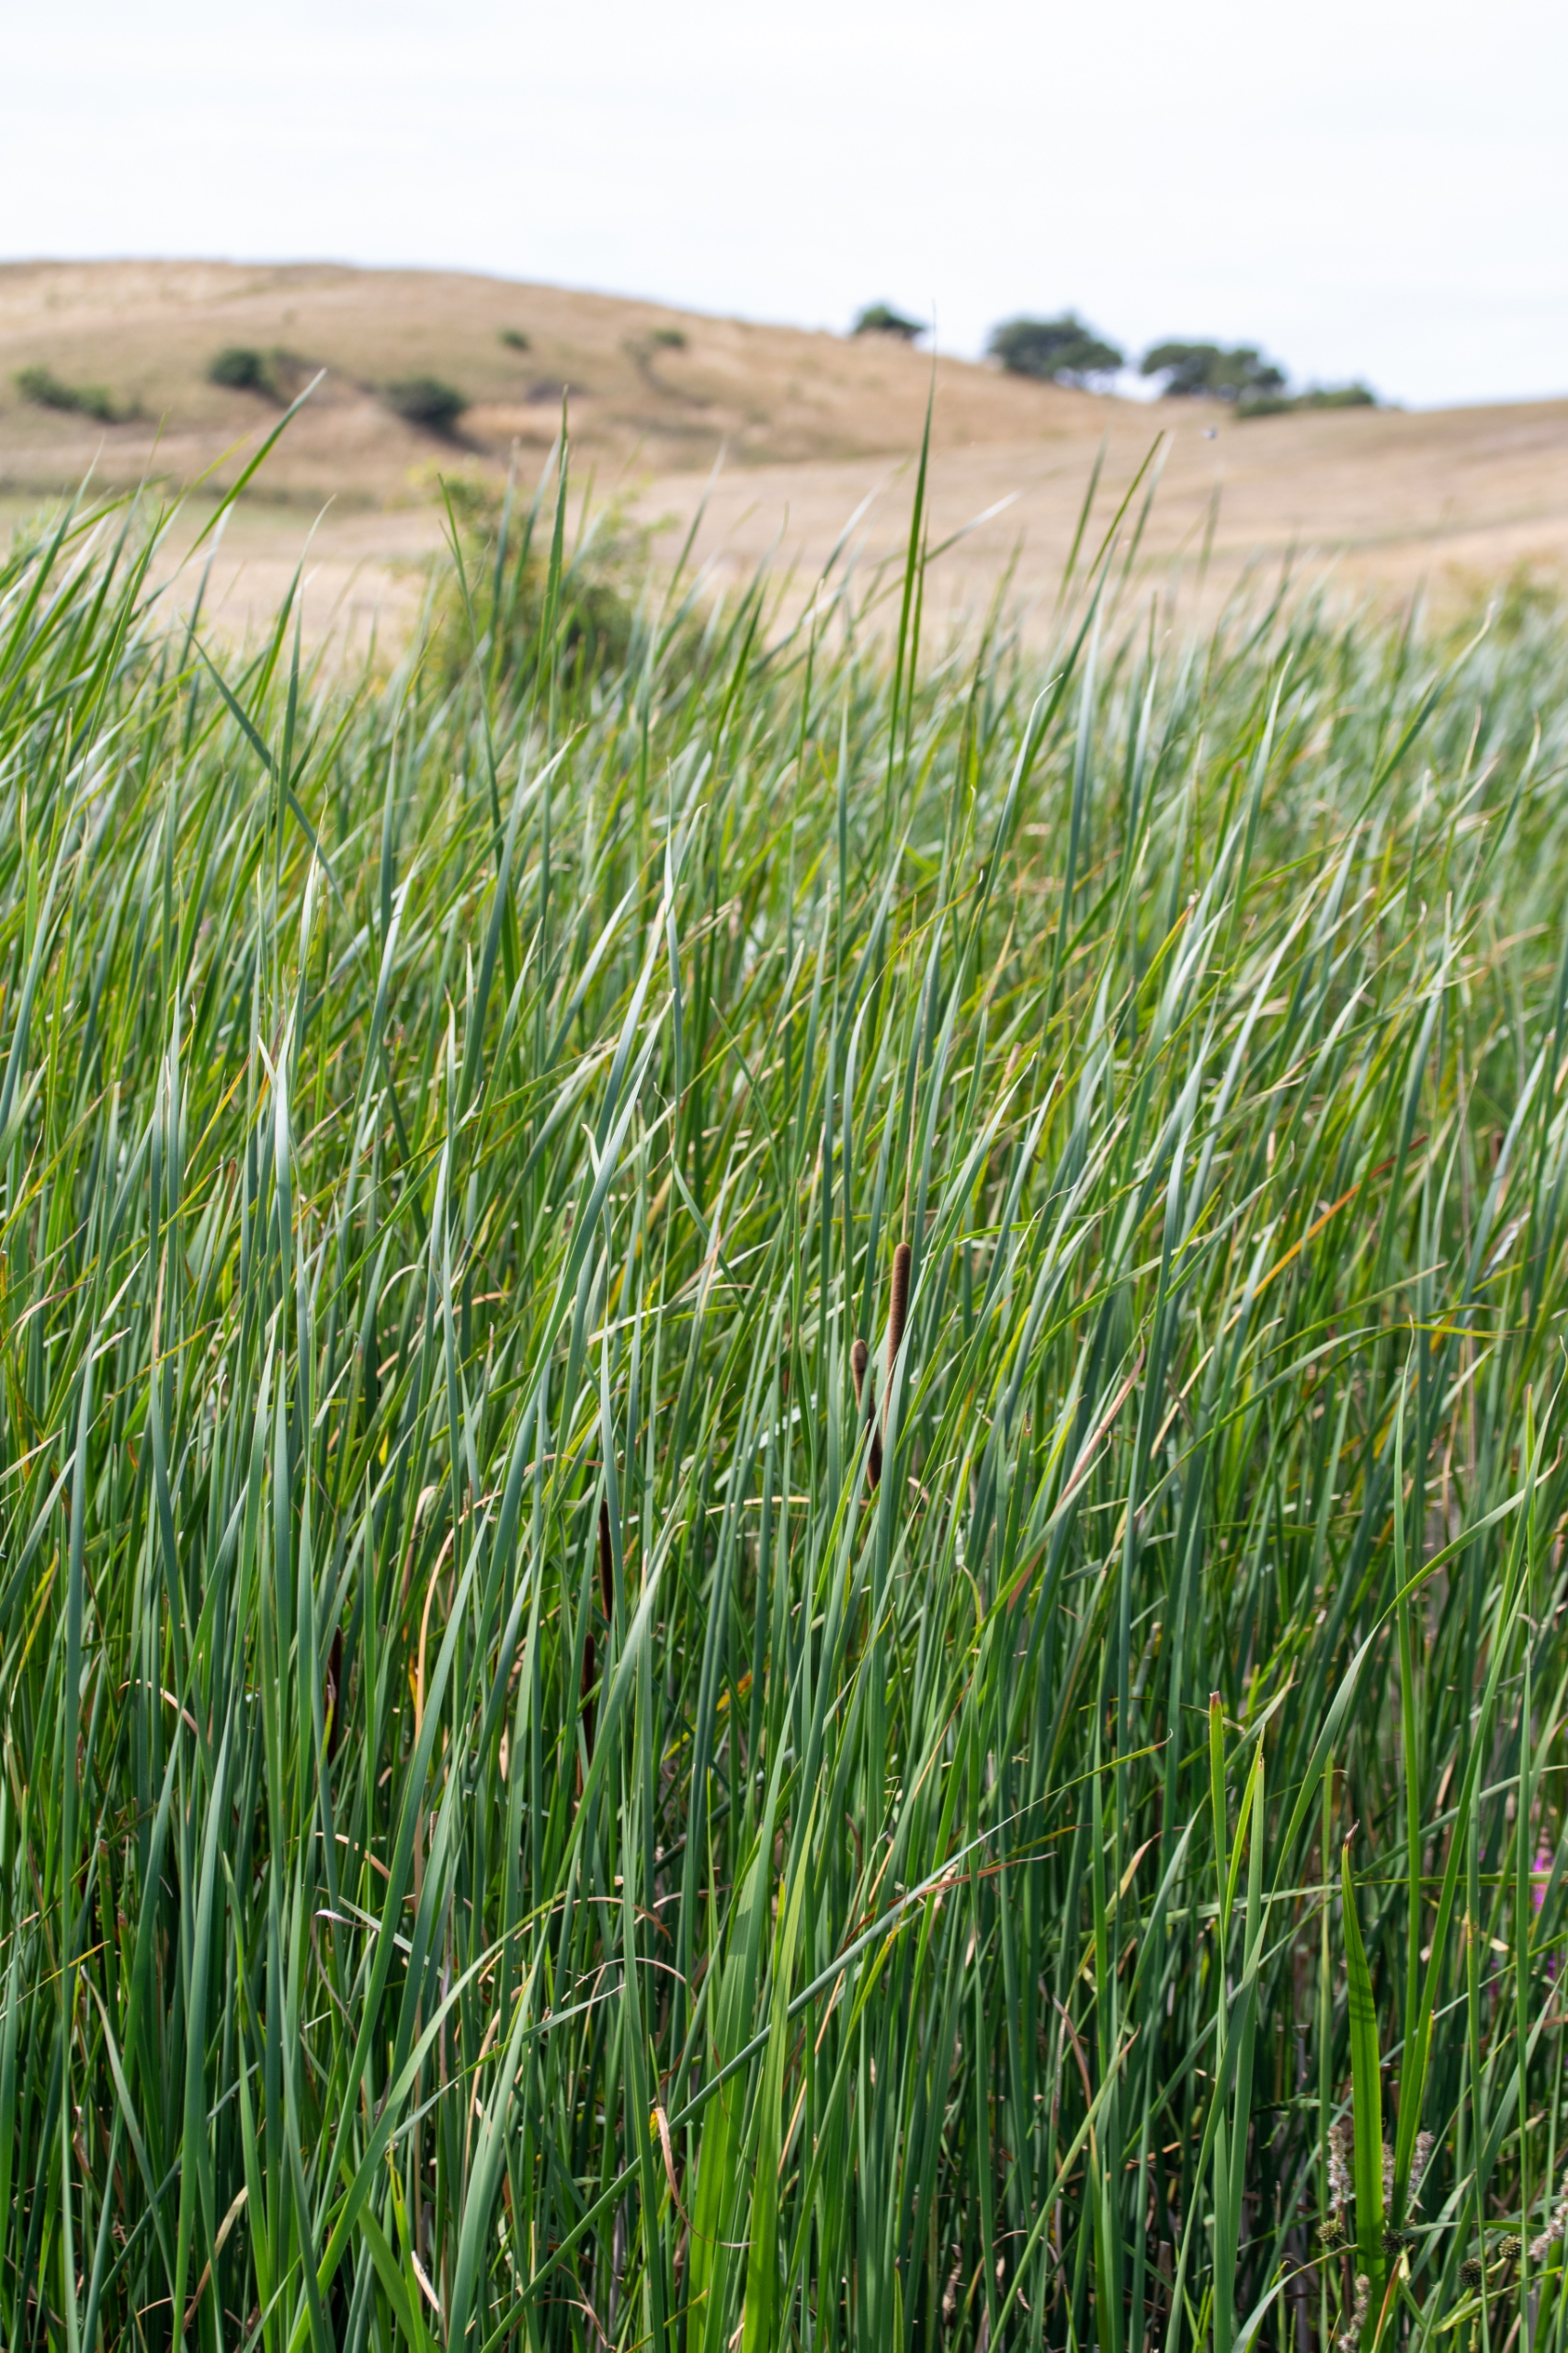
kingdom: Plantae
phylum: Tracheophyta
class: Liliopsida
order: Poales
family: Typhaceae
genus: Typha
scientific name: Typha angustifolia
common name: Smalbladet dunhammer
